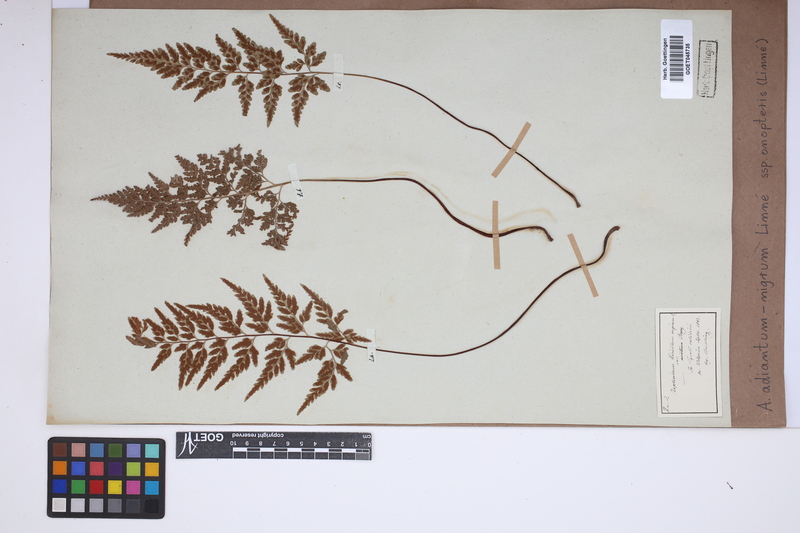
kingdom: Plantae
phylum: Tracheophyta
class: Polypodiopsida
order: Polypodiales
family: Aspleniaceae
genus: Asplenium
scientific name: Asplenium onopteris
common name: Irish spleenwort
